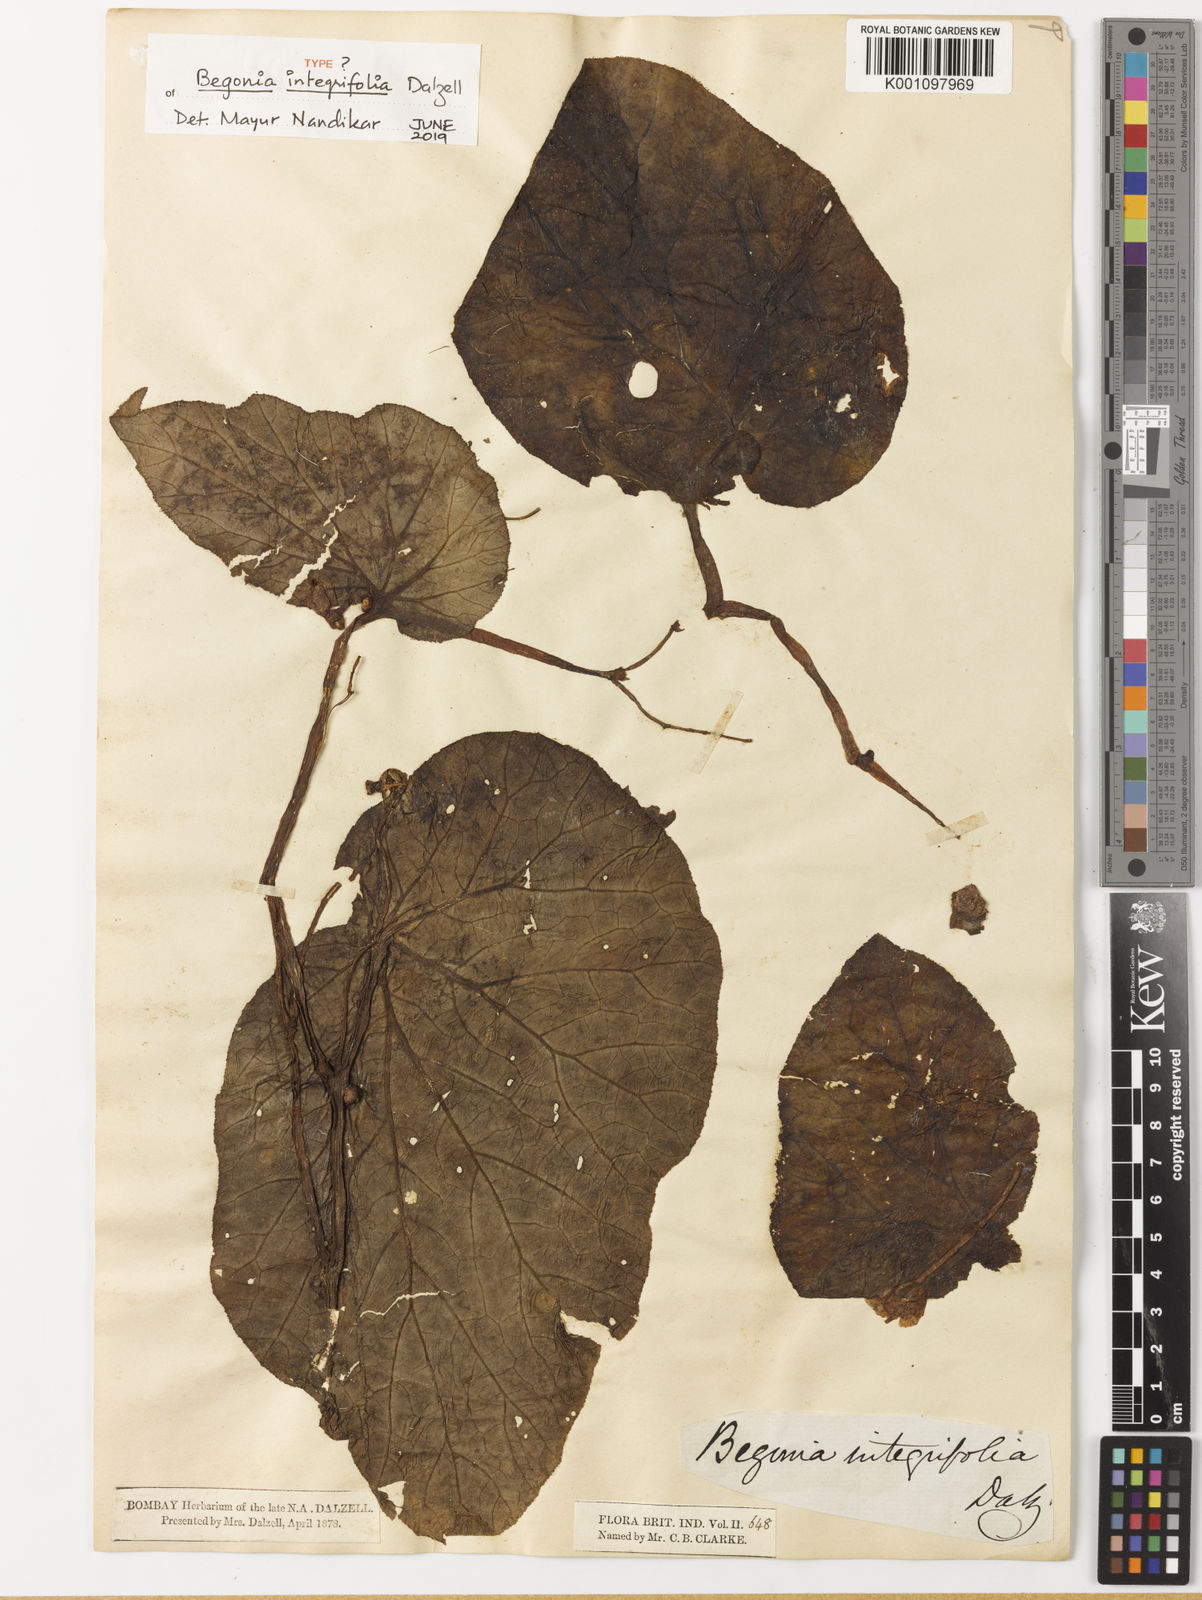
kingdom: Plantae
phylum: Tracheophyta
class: Magnoliopsida
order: Cucurbitales
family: Begoniaceae
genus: Begonia
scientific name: Begonia integrifolia
